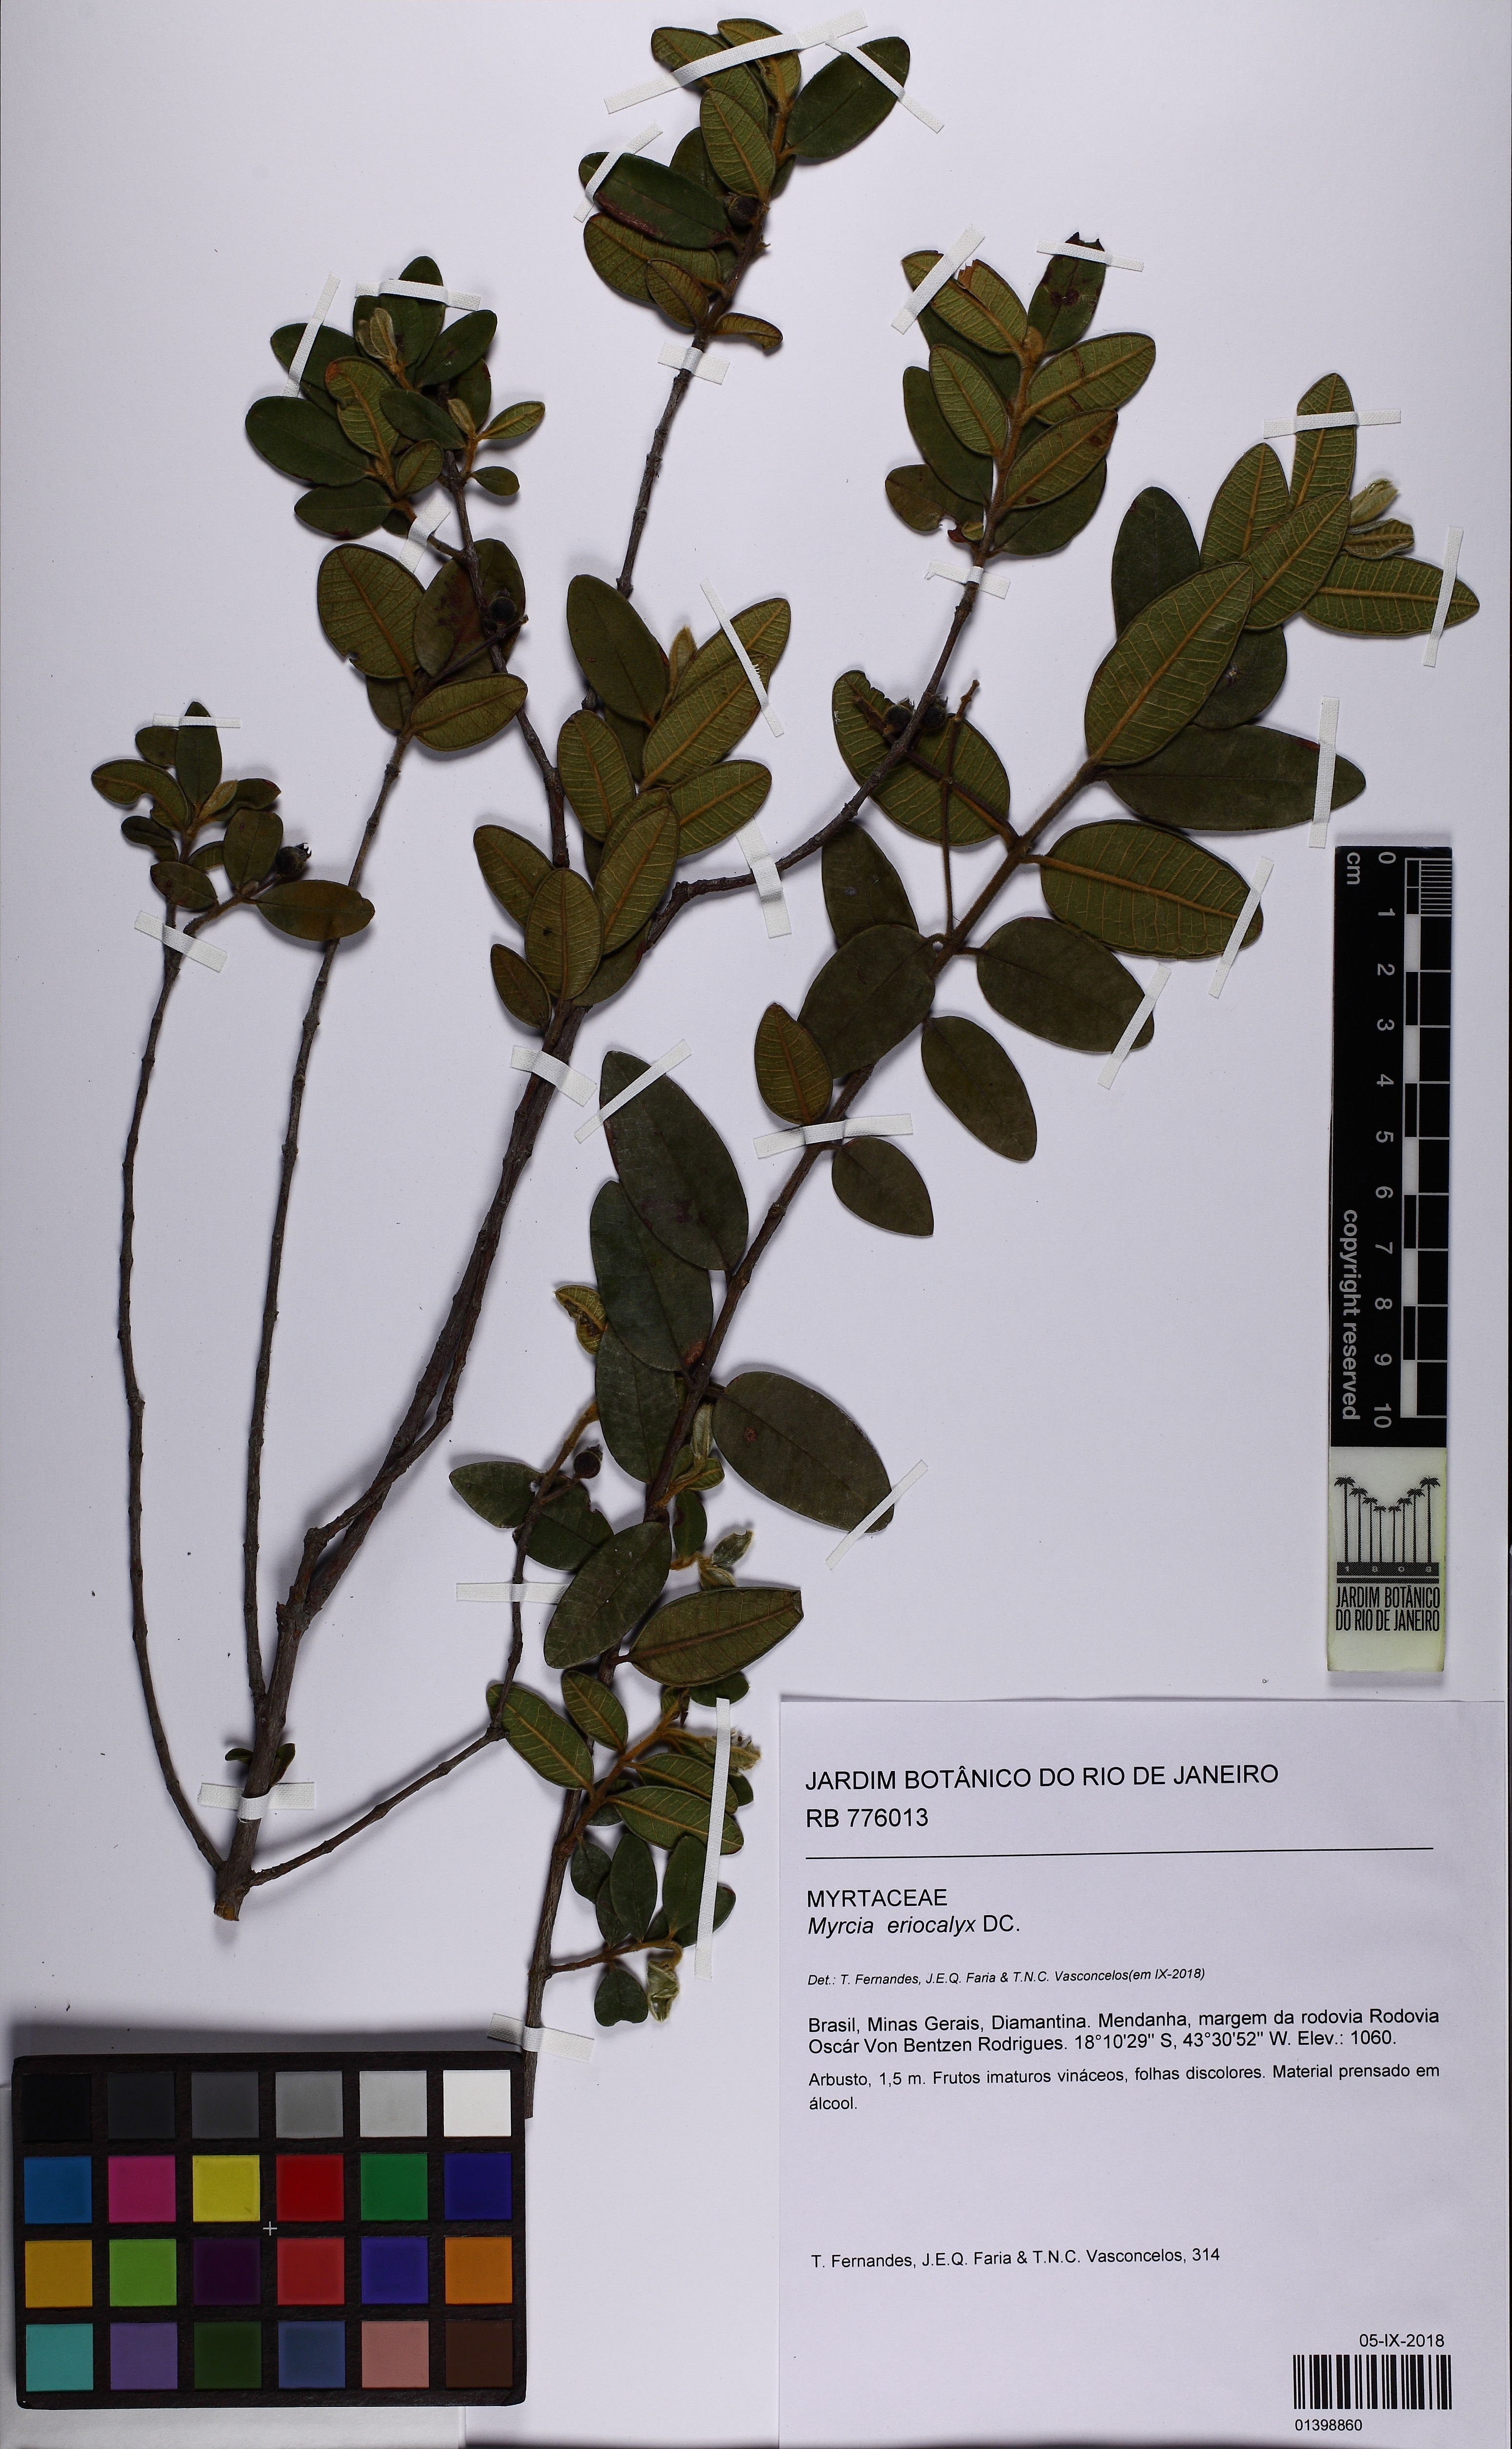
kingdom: Plantae
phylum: Tracheophyta
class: Magnoliopsida
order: Myrtales
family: Myrtaceae
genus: Myrcia
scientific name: Myrcia eriocalyx
